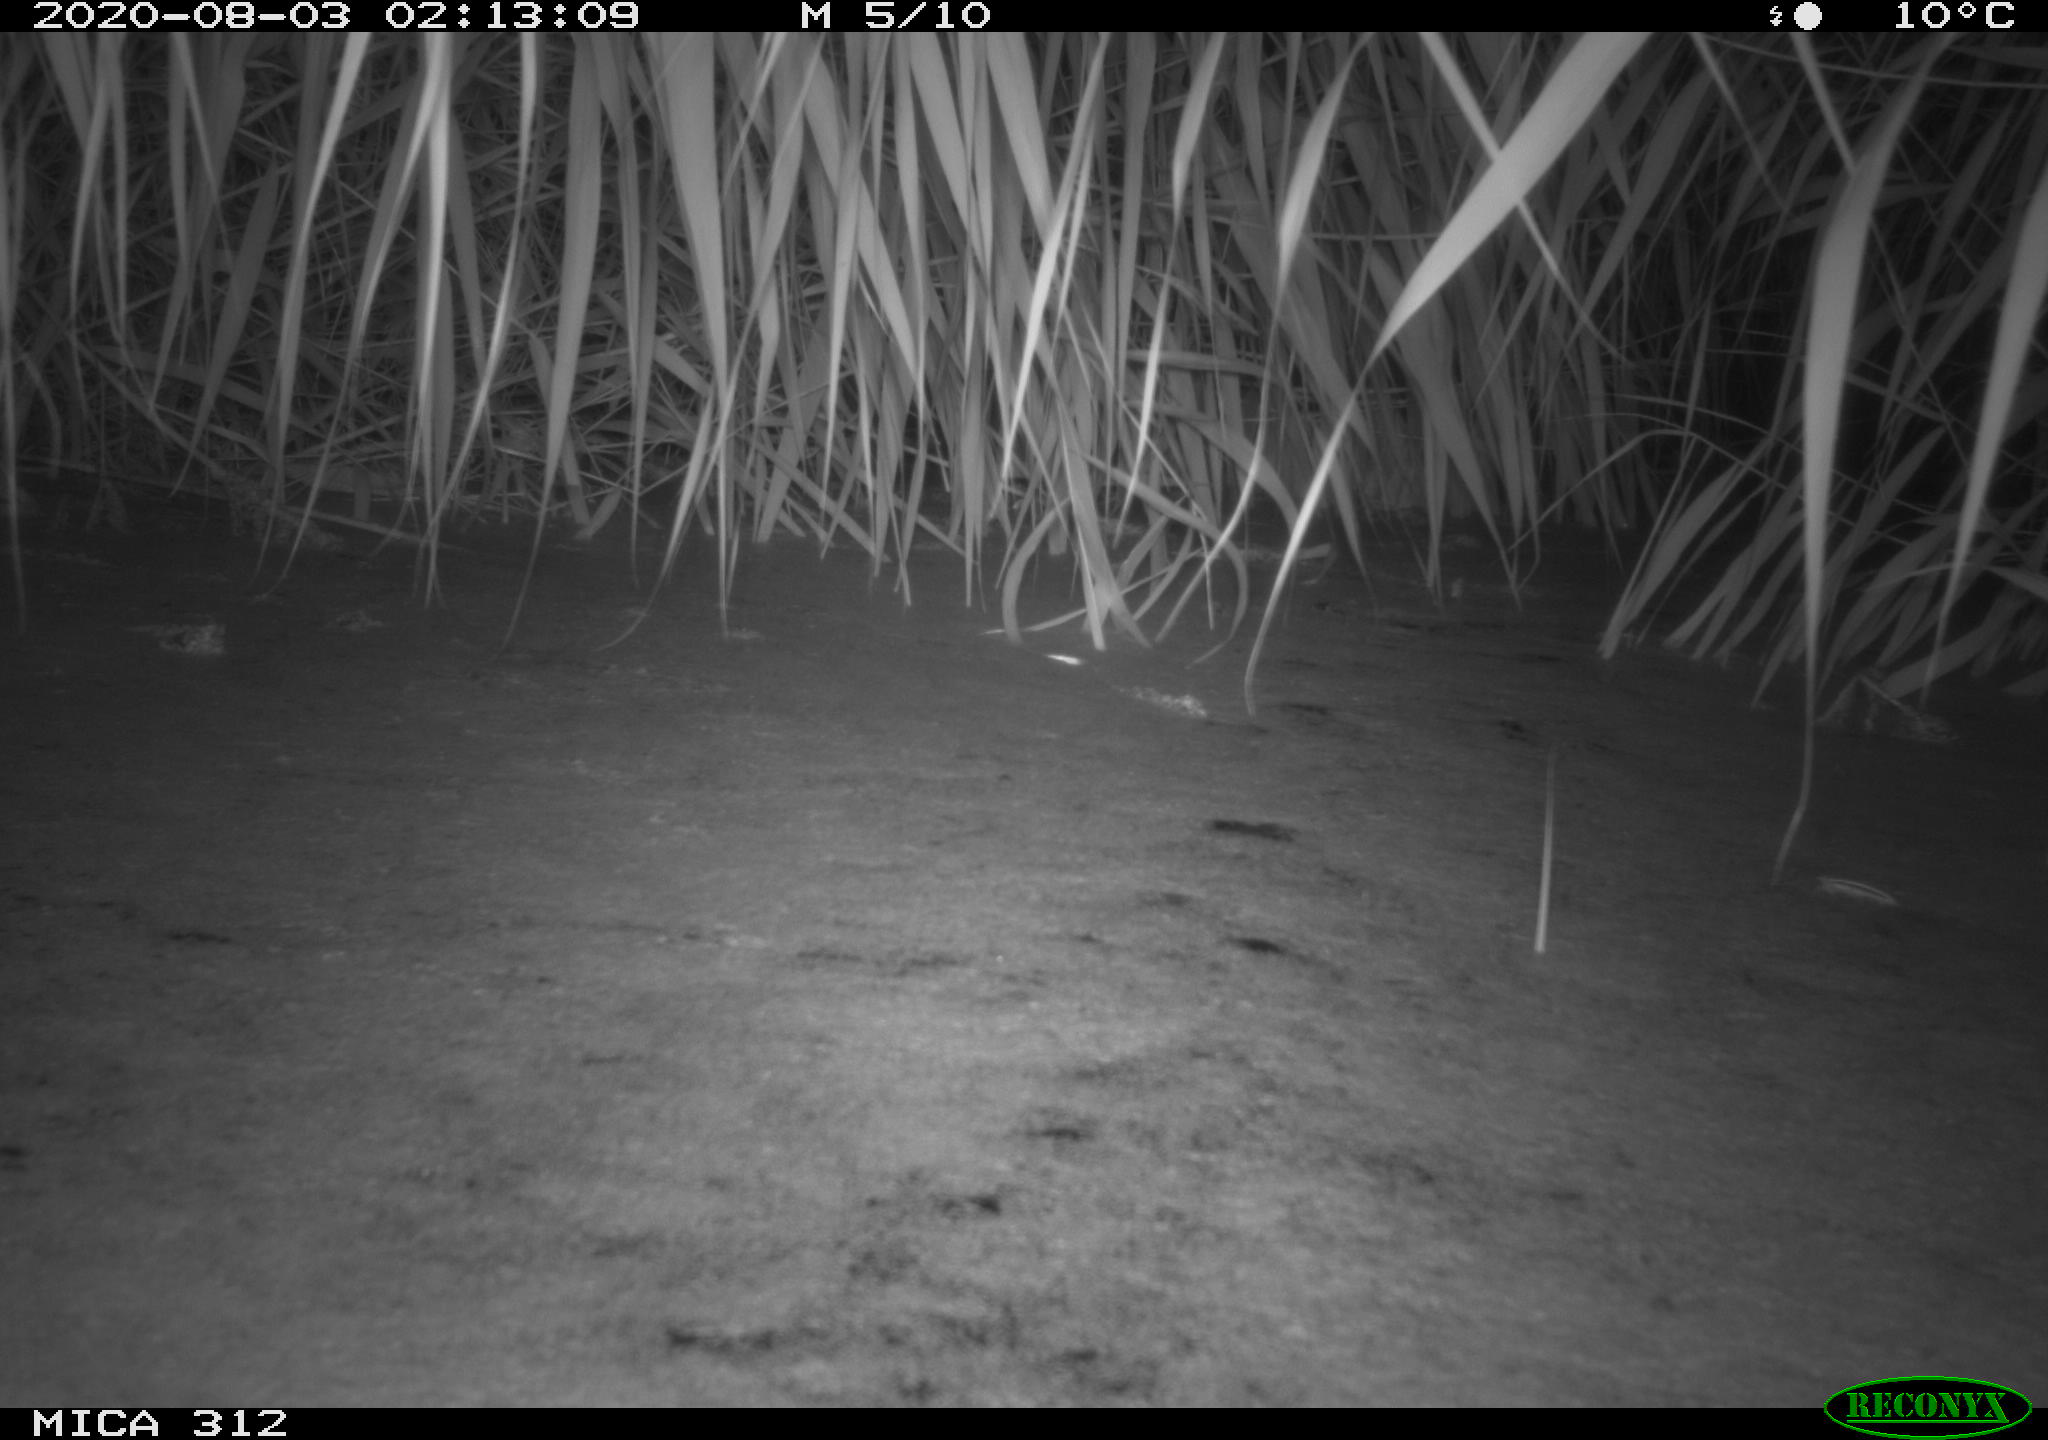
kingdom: Animalia
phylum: Chordata
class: Mammalia
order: Rodentia
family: Muridae
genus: Rattus
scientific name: Rattus norvegicus
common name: Brown rat
